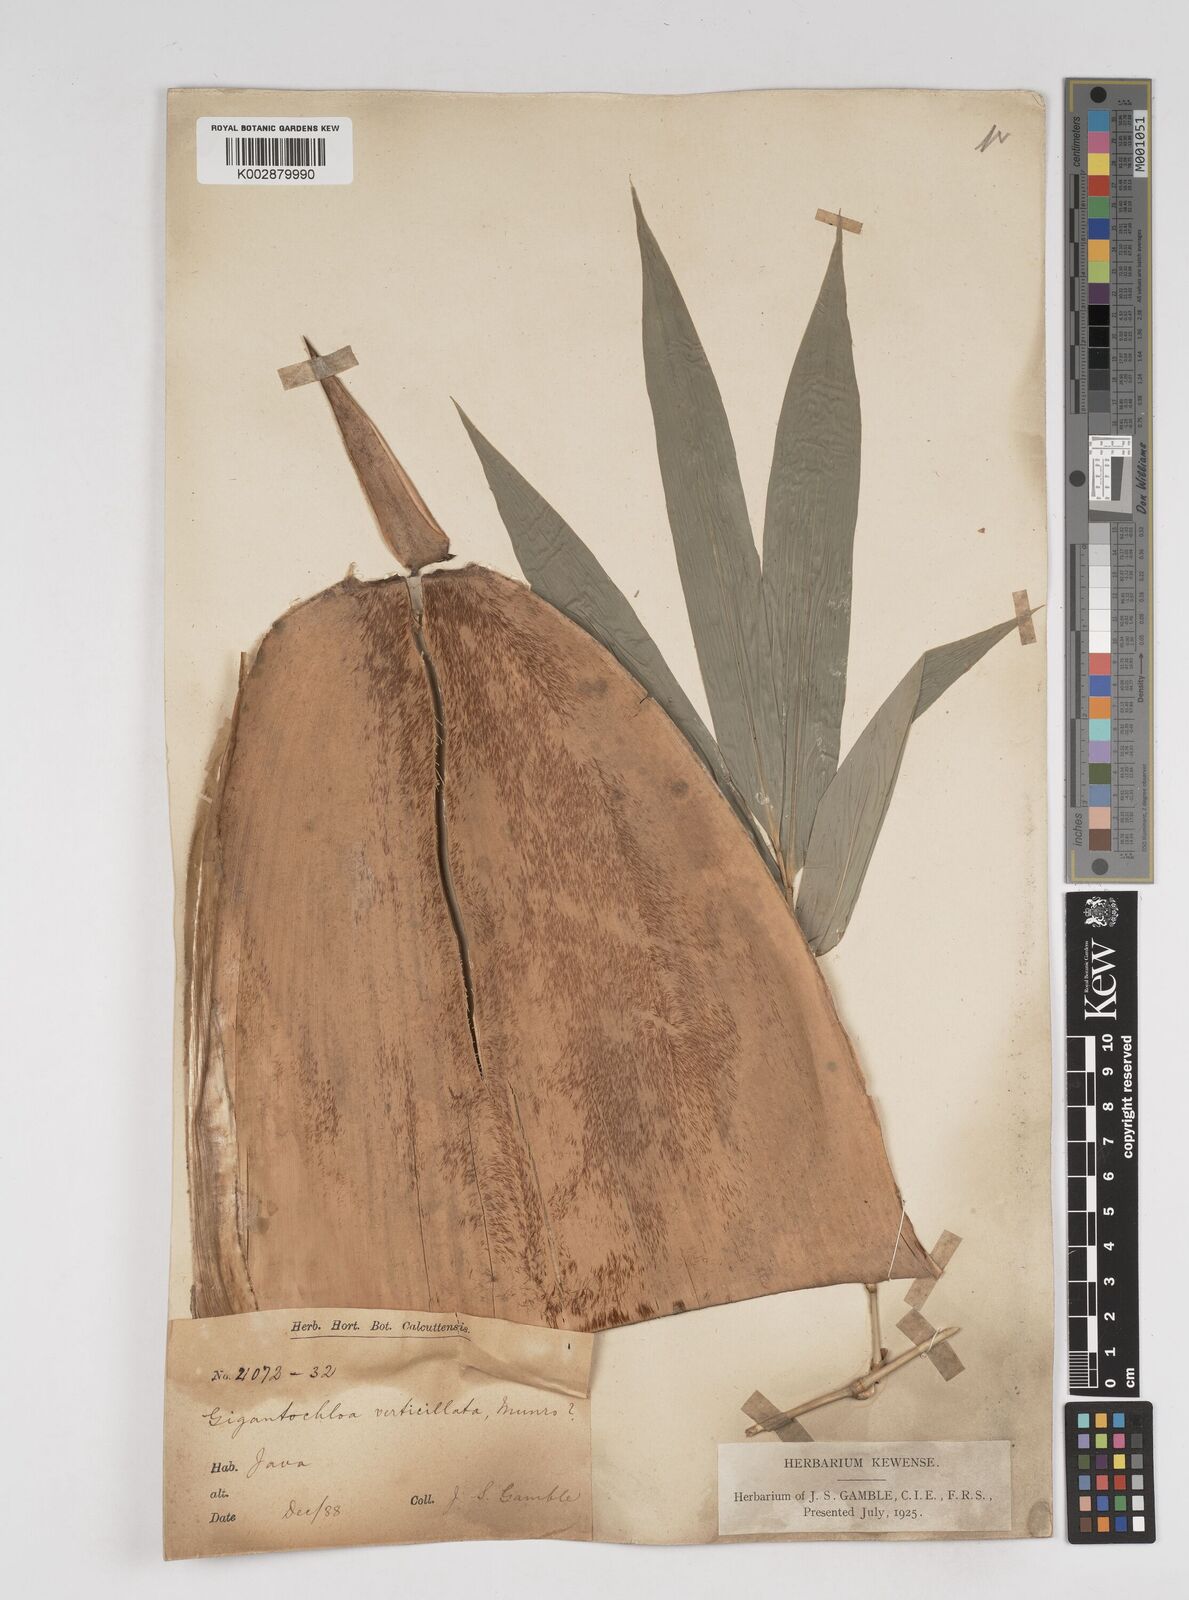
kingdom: Plantae
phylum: Tracheophyta
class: Liliopsida
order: Poales
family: Poaceae
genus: Gigantochloa
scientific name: Gigantochloa verticillata
